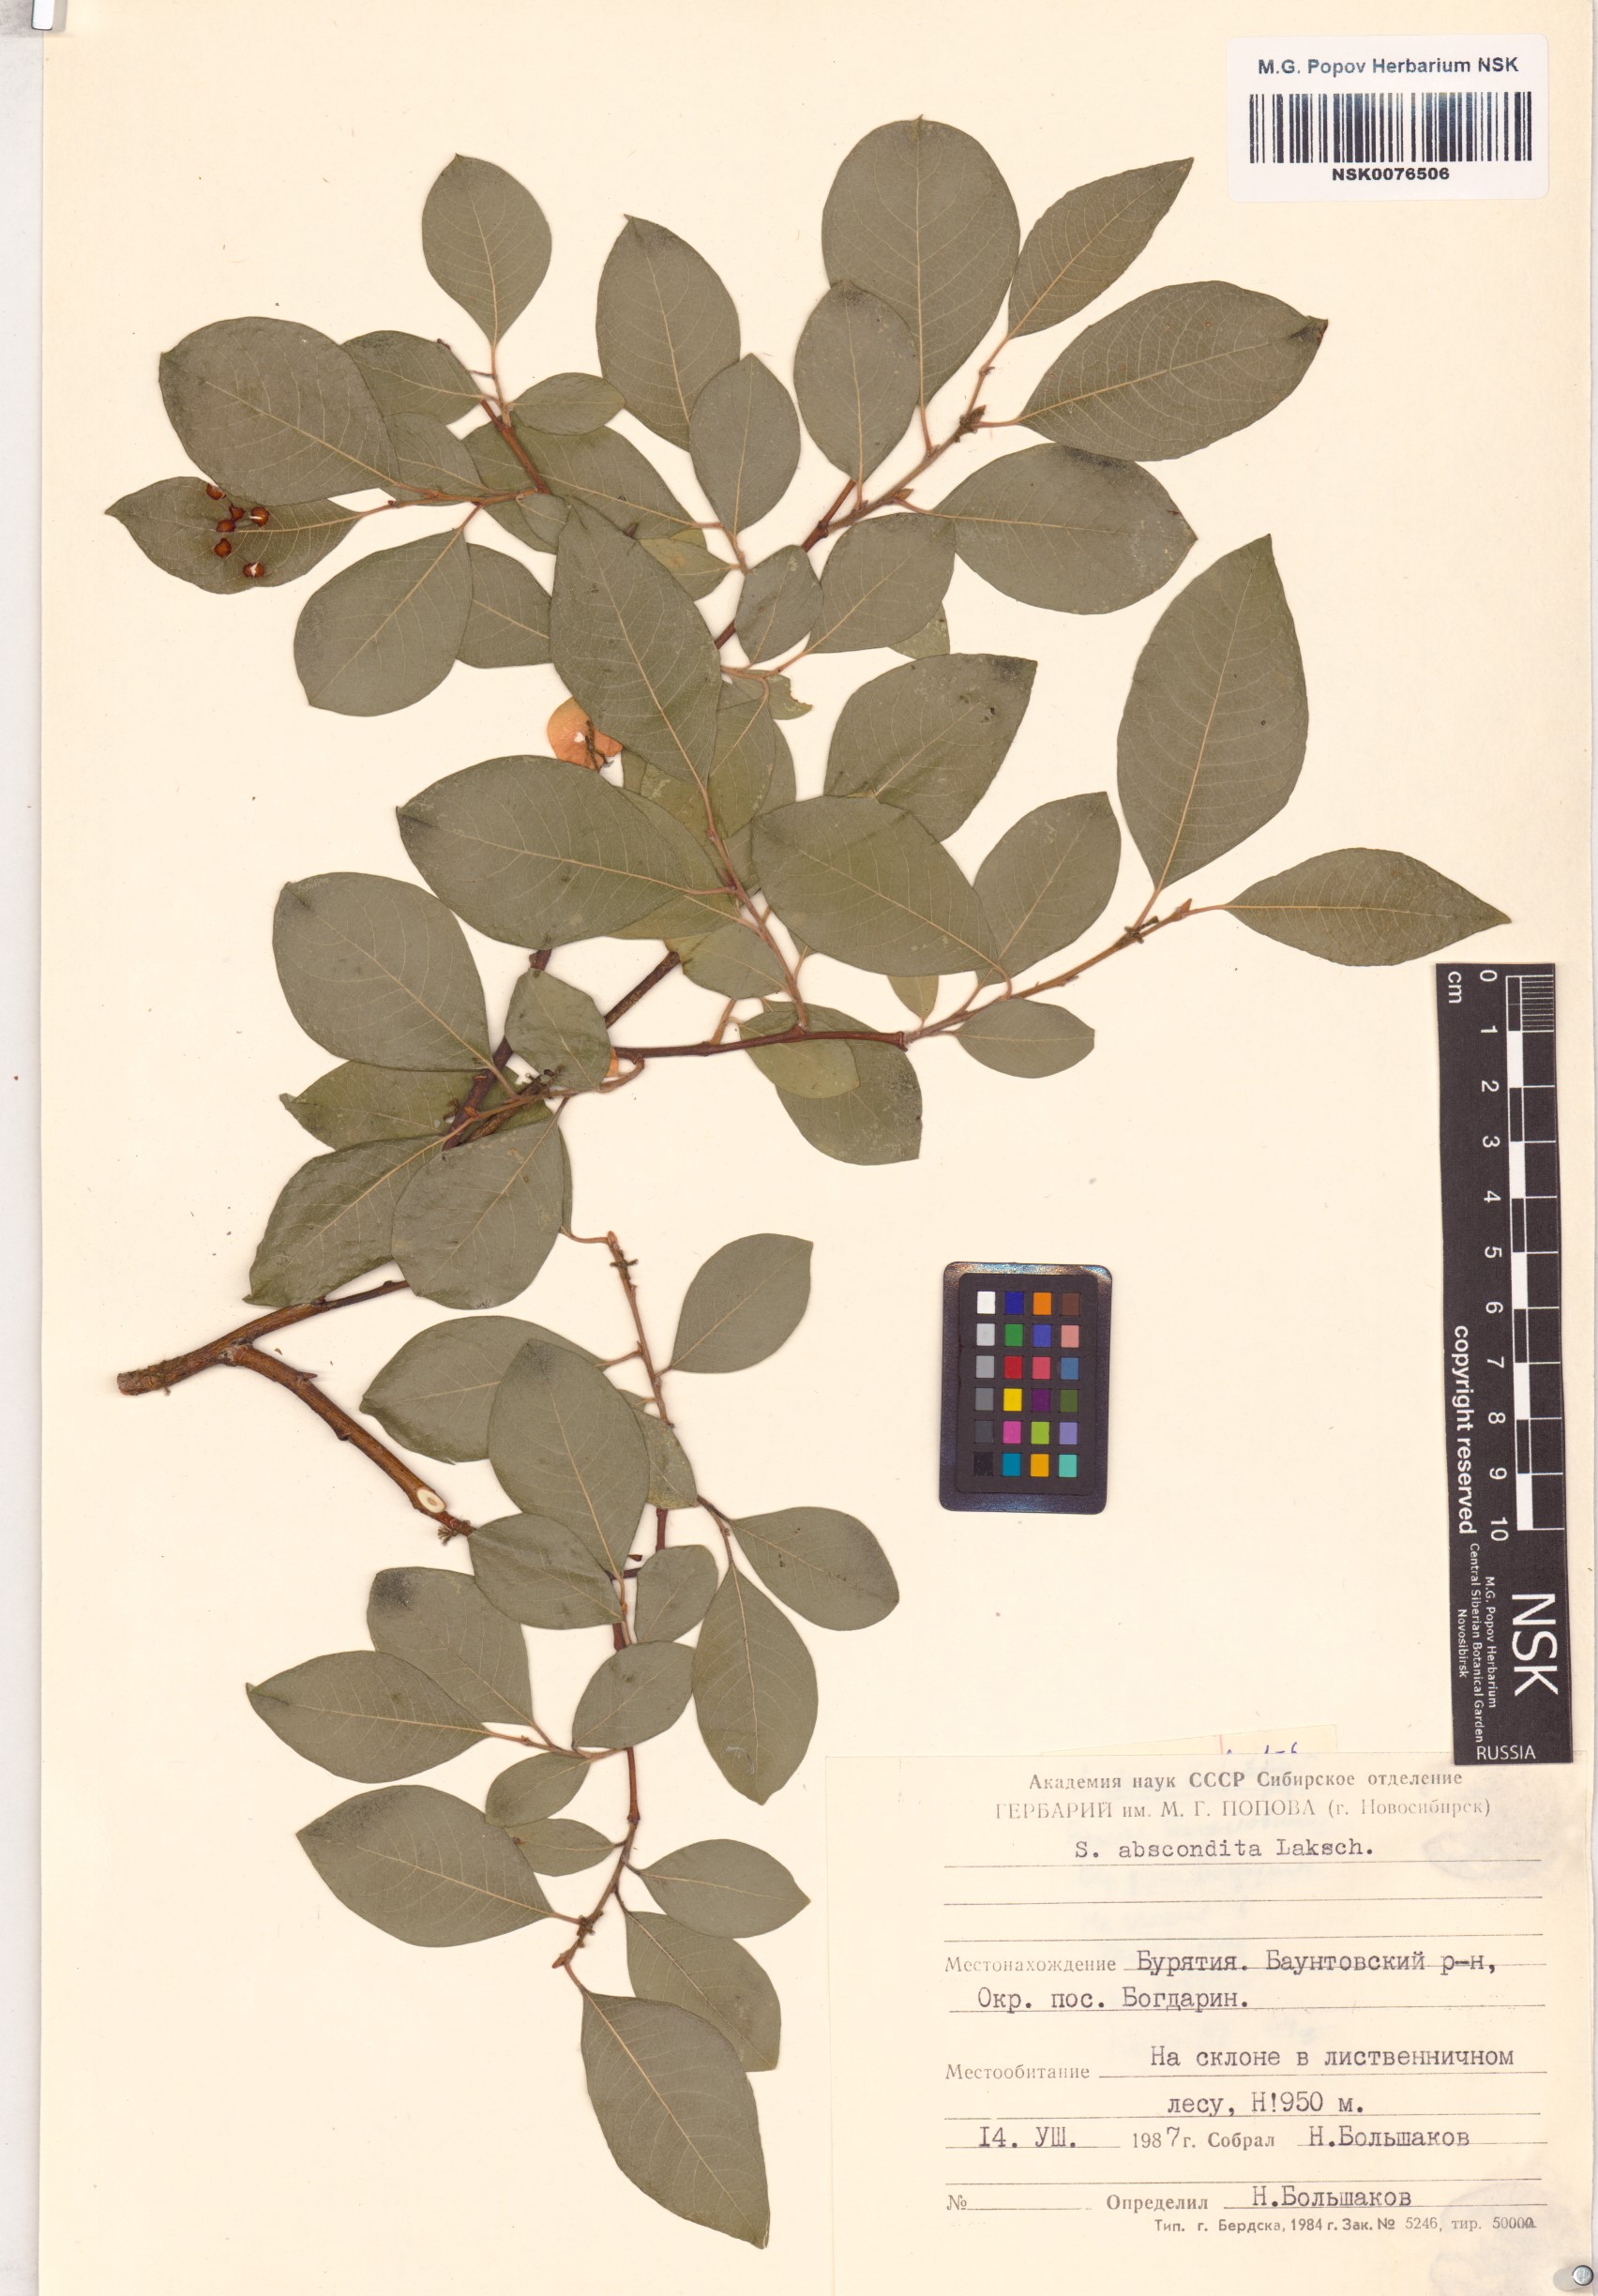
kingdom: Plantae
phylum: Tracheophyta
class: Magnoliopsida
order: Malpighiales
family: Salicaceae
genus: Salix
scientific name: Salix abscondita
